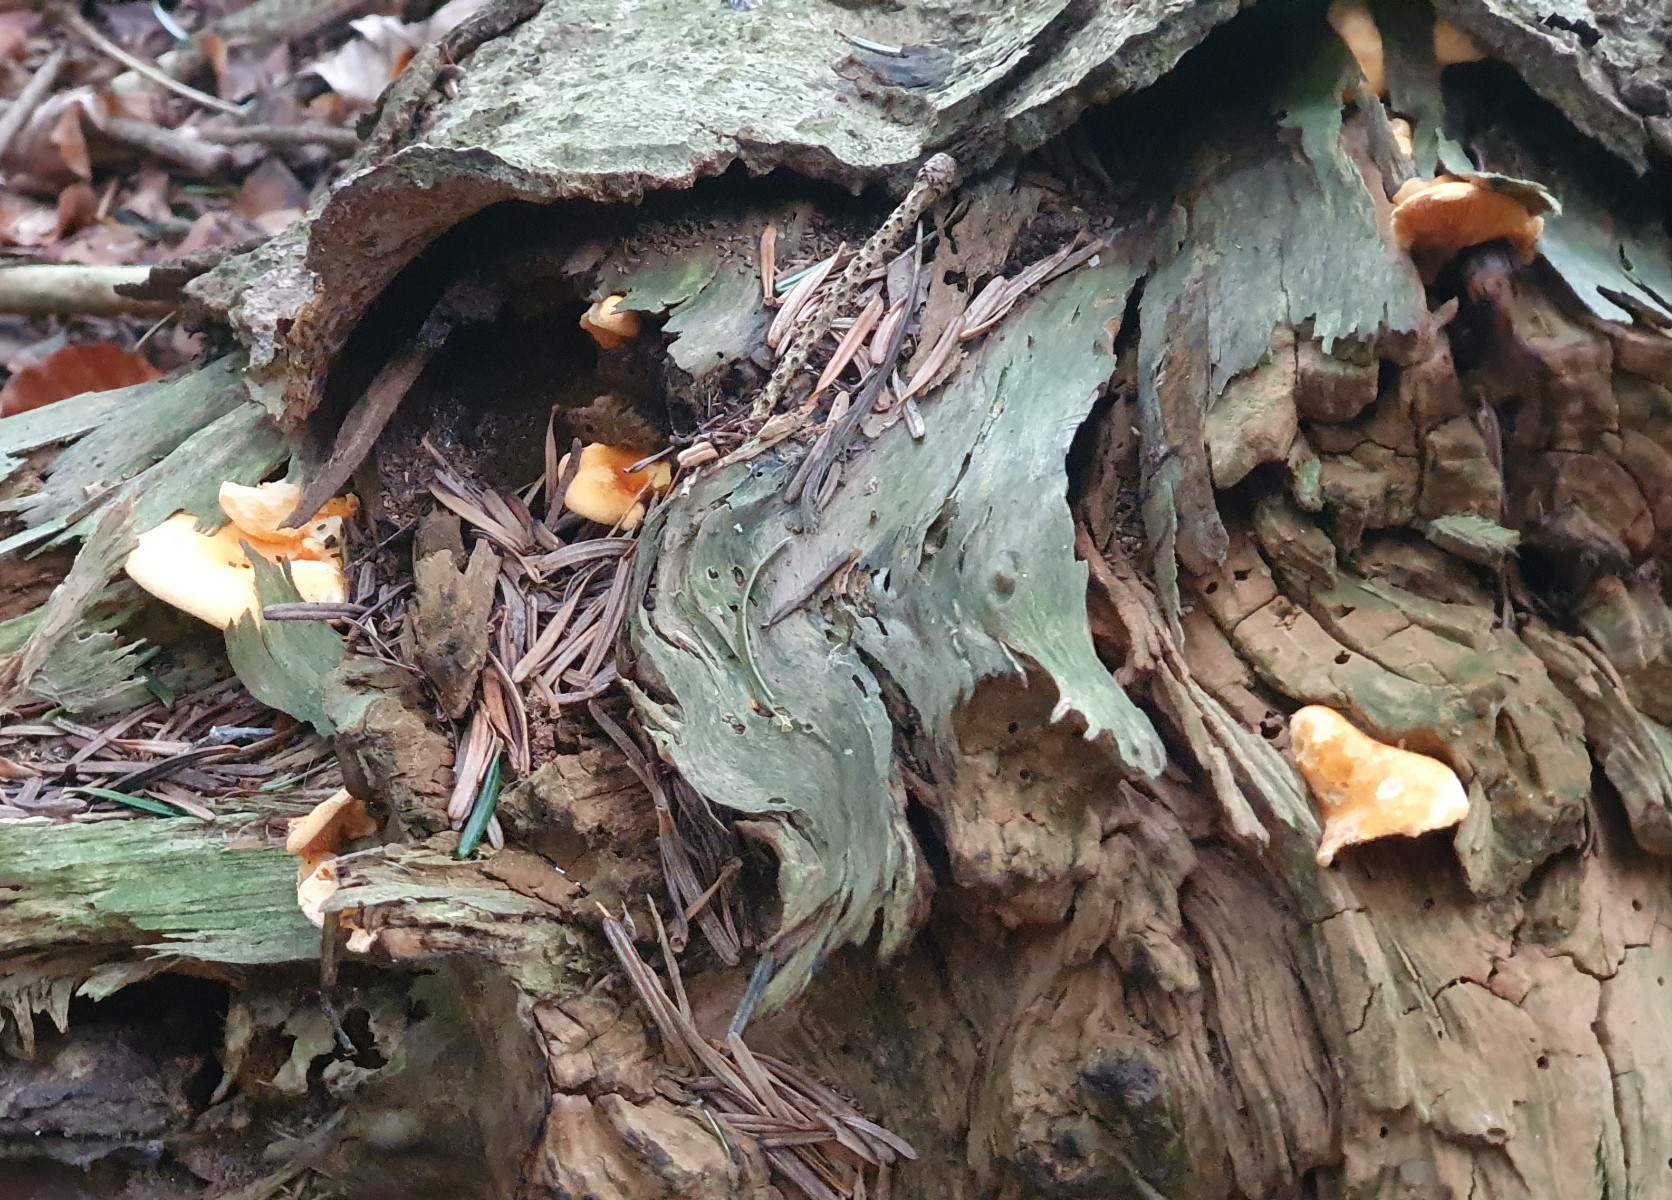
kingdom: Fungi
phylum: Basidiomycota
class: Agaricomycetes
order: Boletales
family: Hygrophoropsidaceae
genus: Hygrophoropsis
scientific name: Hygrophoropsis aurantiaca
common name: almindelig orangekantarel
